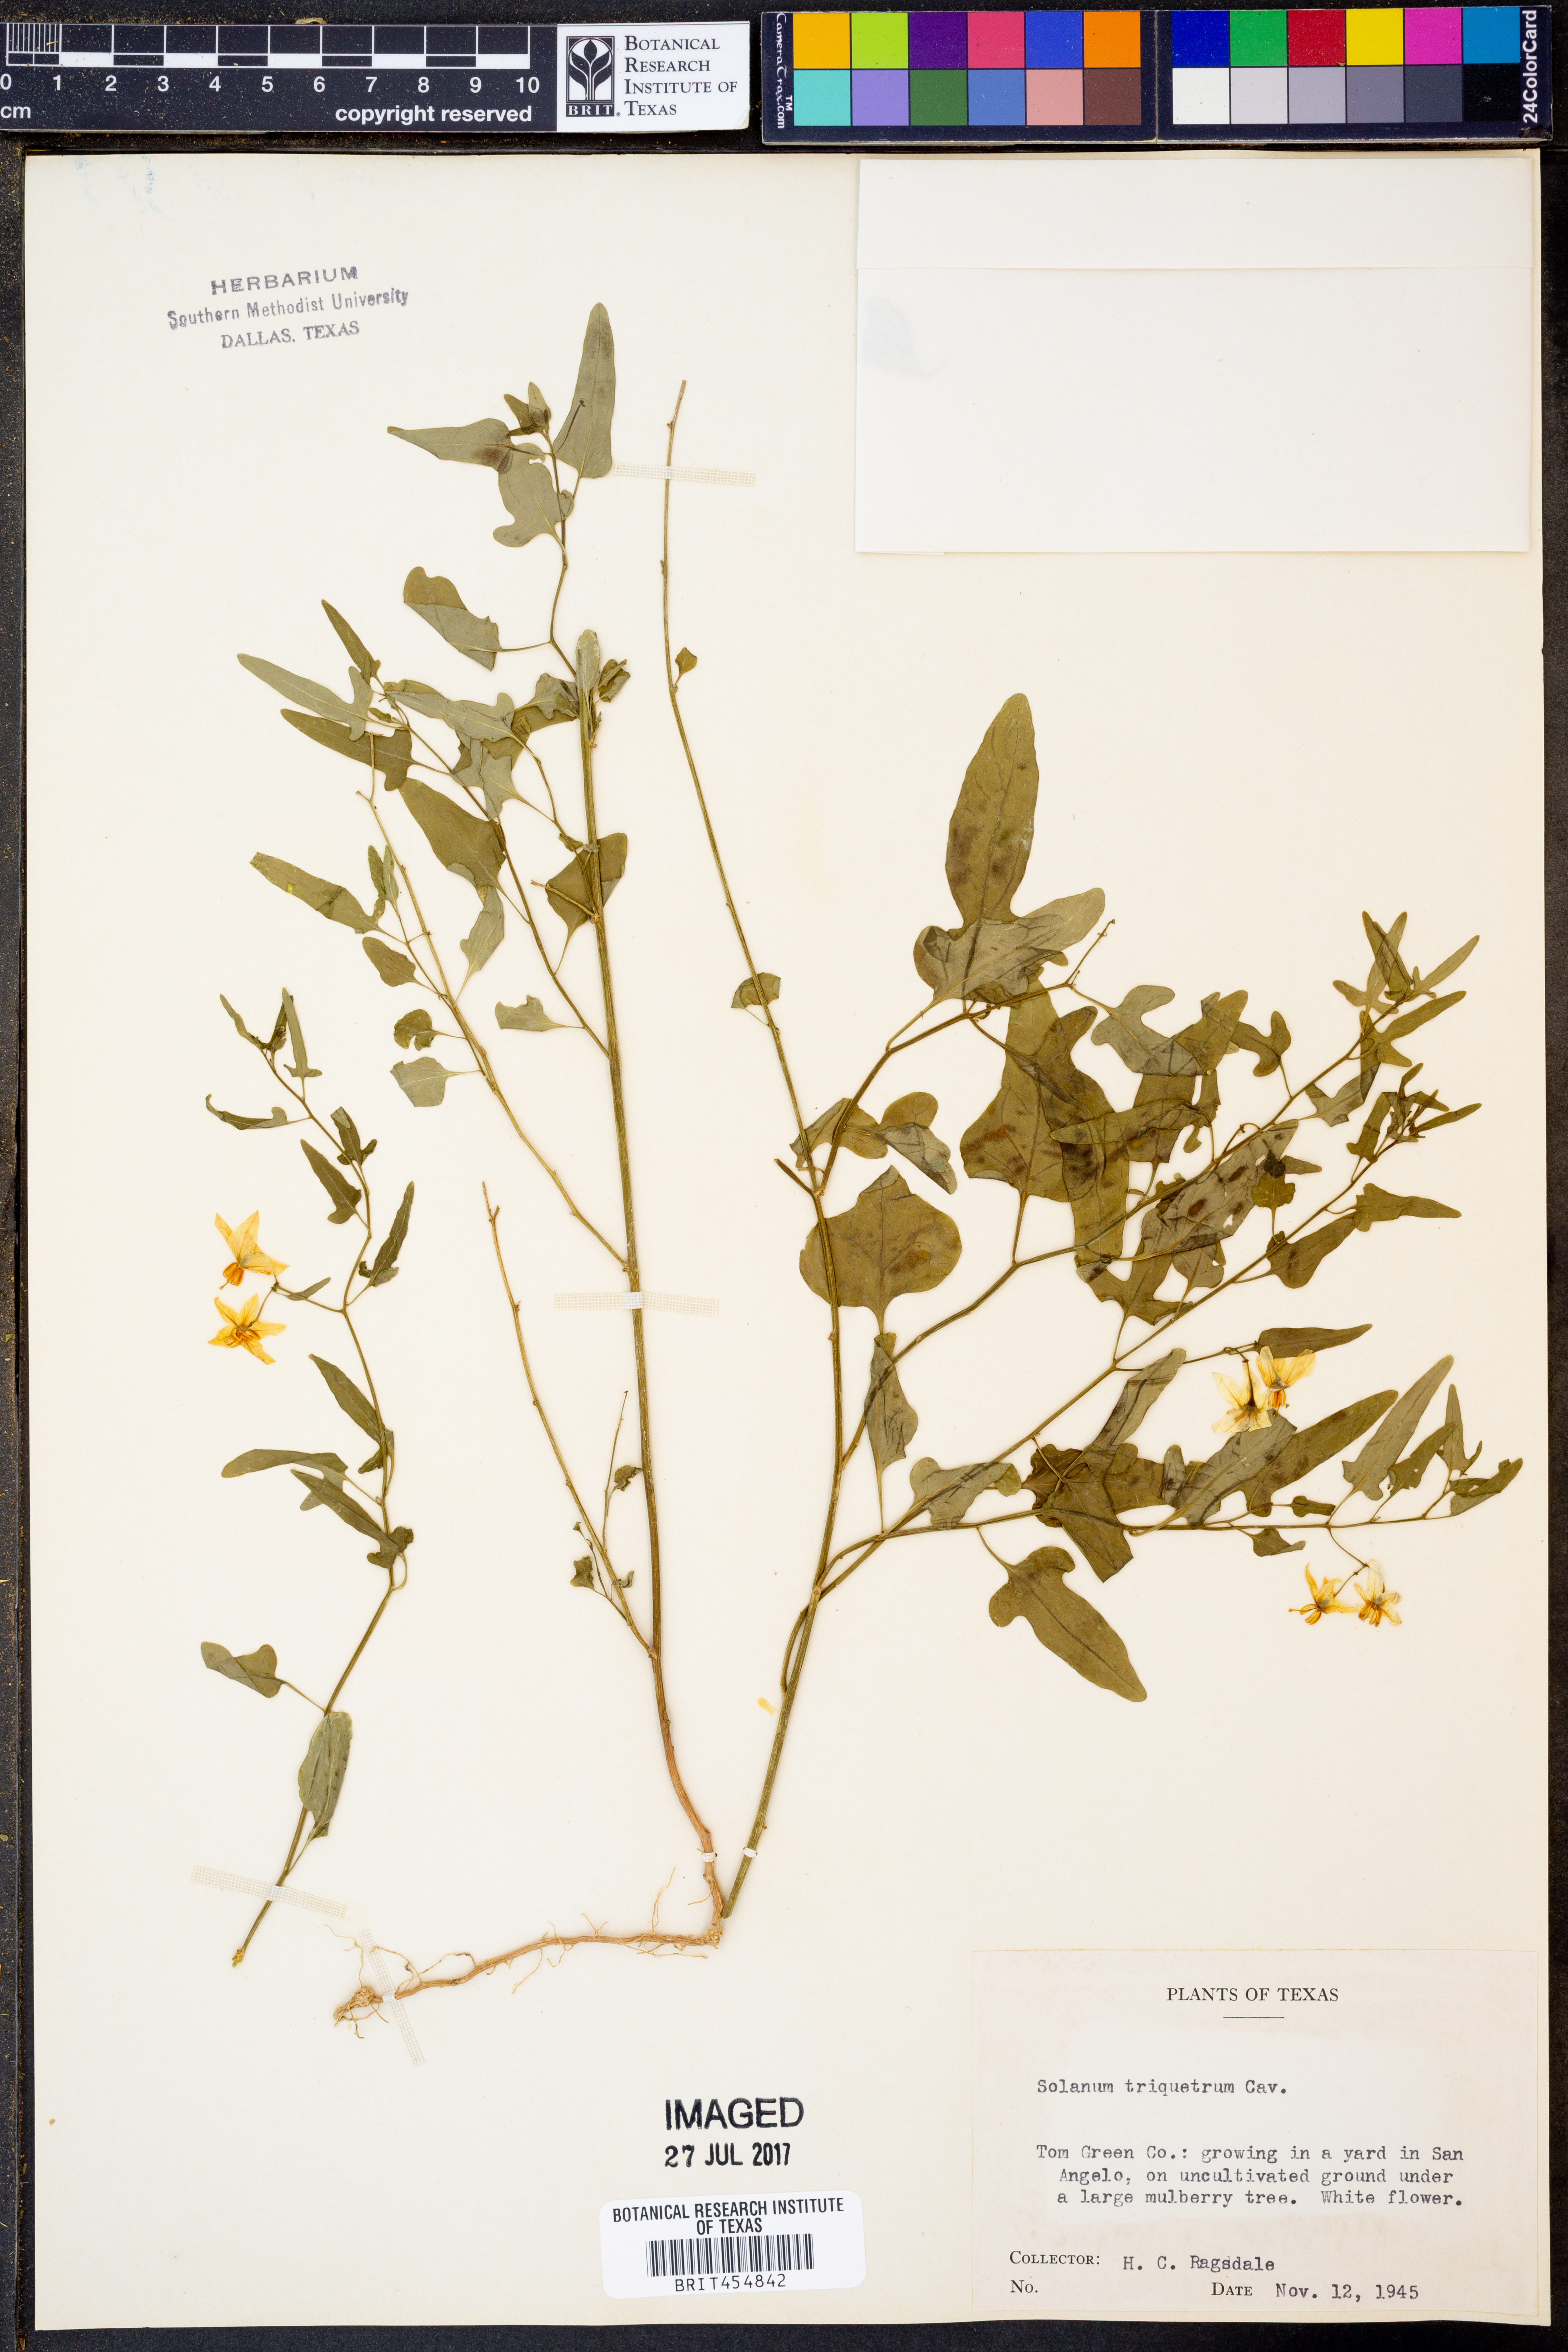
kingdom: Plantae
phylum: Tracheophyta
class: Magnoliopsida
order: Solanales
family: Solanaceae
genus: Solanum
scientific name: Solanum triquetrum
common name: Texas nightshade
